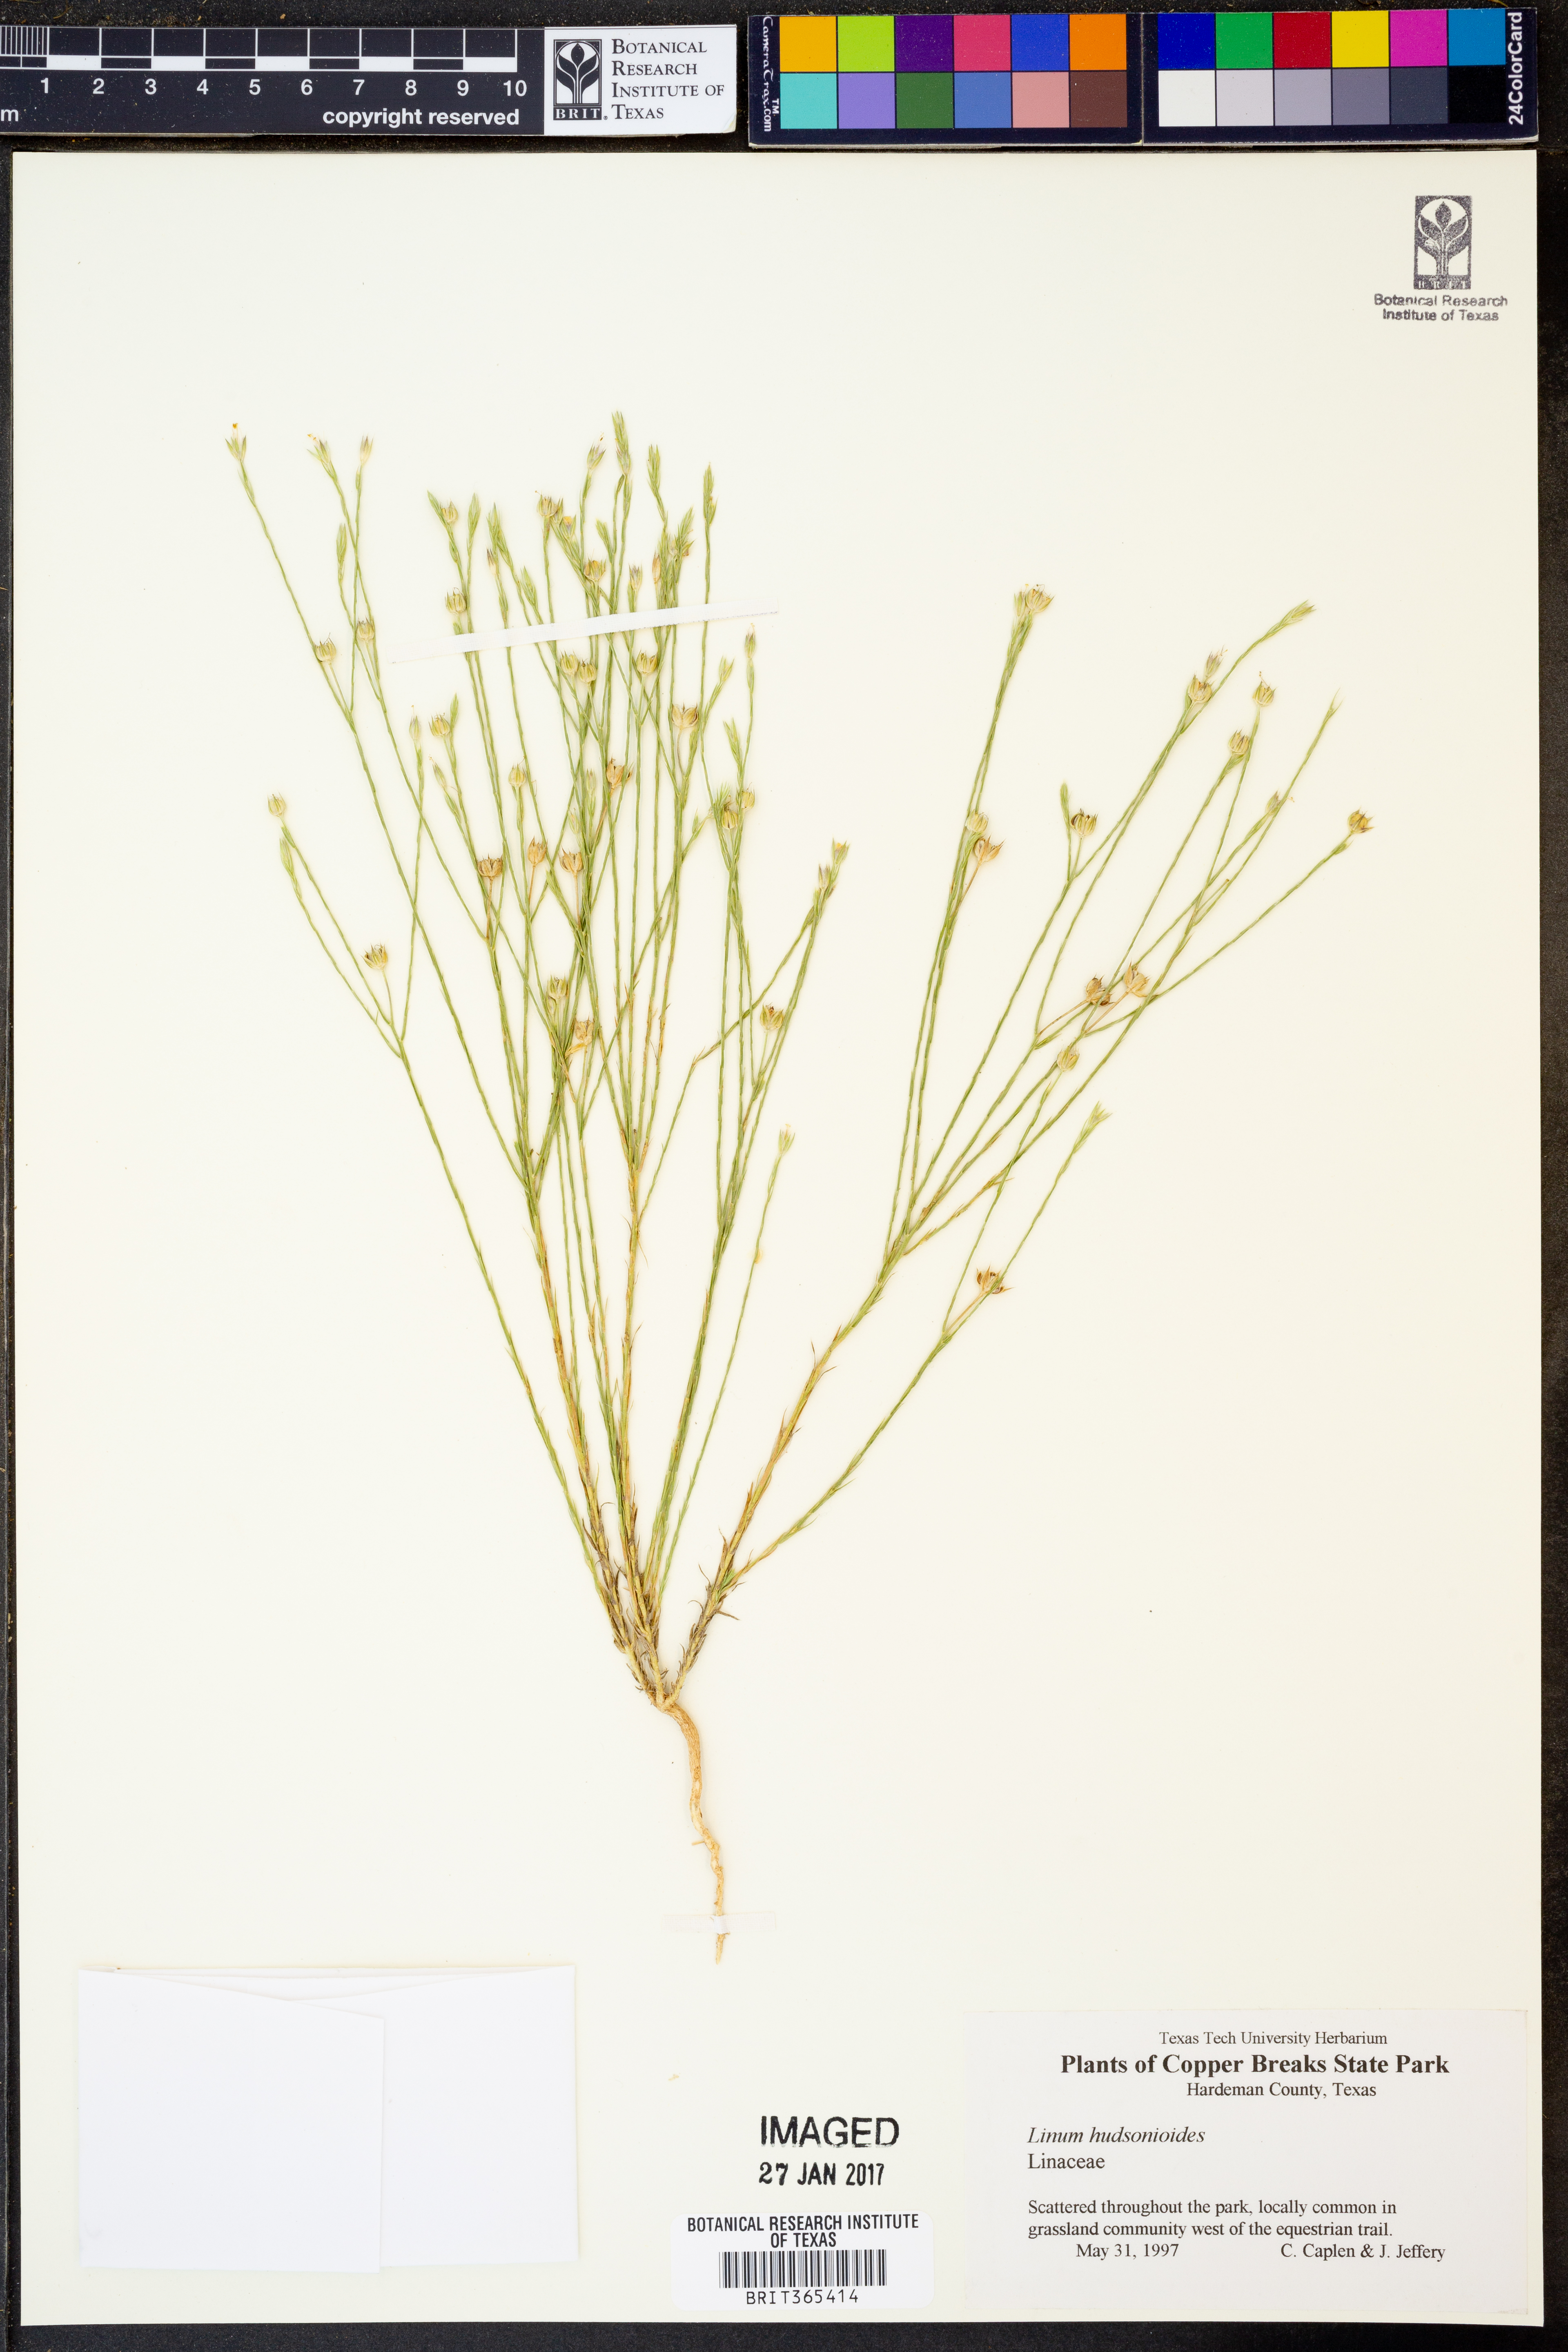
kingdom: Plantae
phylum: Tracheophyta
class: Magnoliopsida
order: Malpighiales
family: Linaceae
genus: Linum
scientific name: Linum hudsonioides
